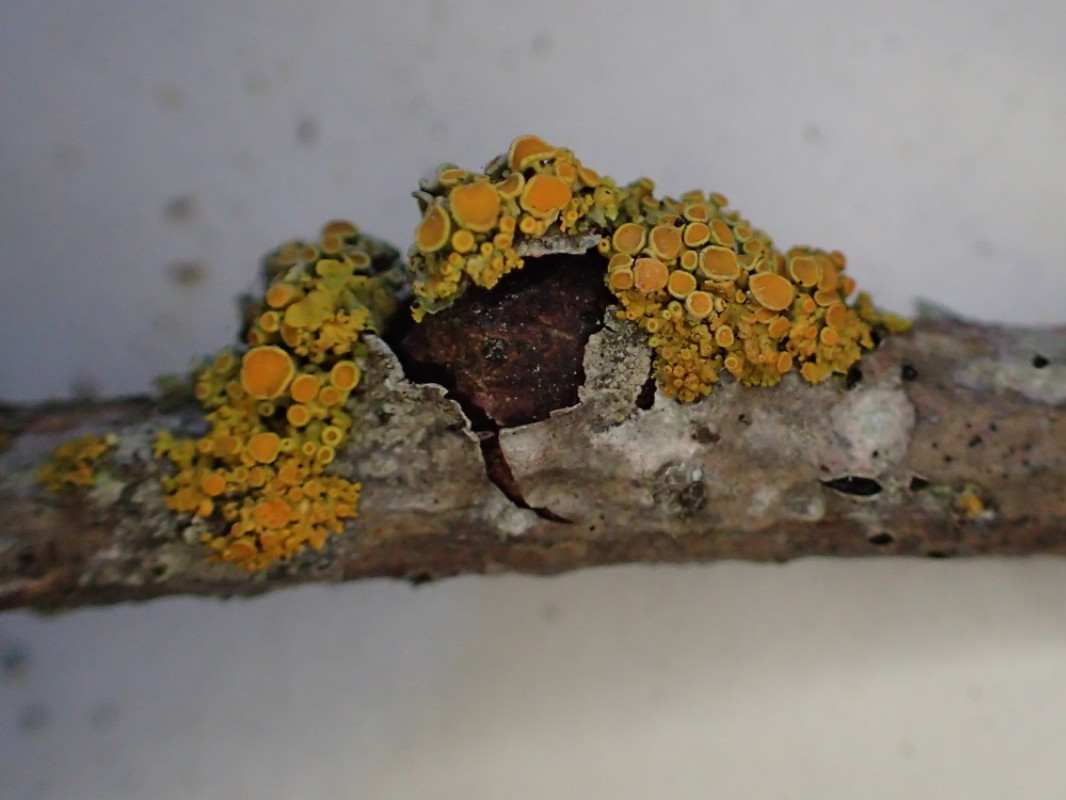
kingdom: Fungi
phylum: Ascomycota
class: Lecanoromycetes
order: Teloschistales
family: Teloschistaceae
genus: Polycauliona
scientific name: Polycauliona polycarpa
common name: mangefrugtet orangelav
